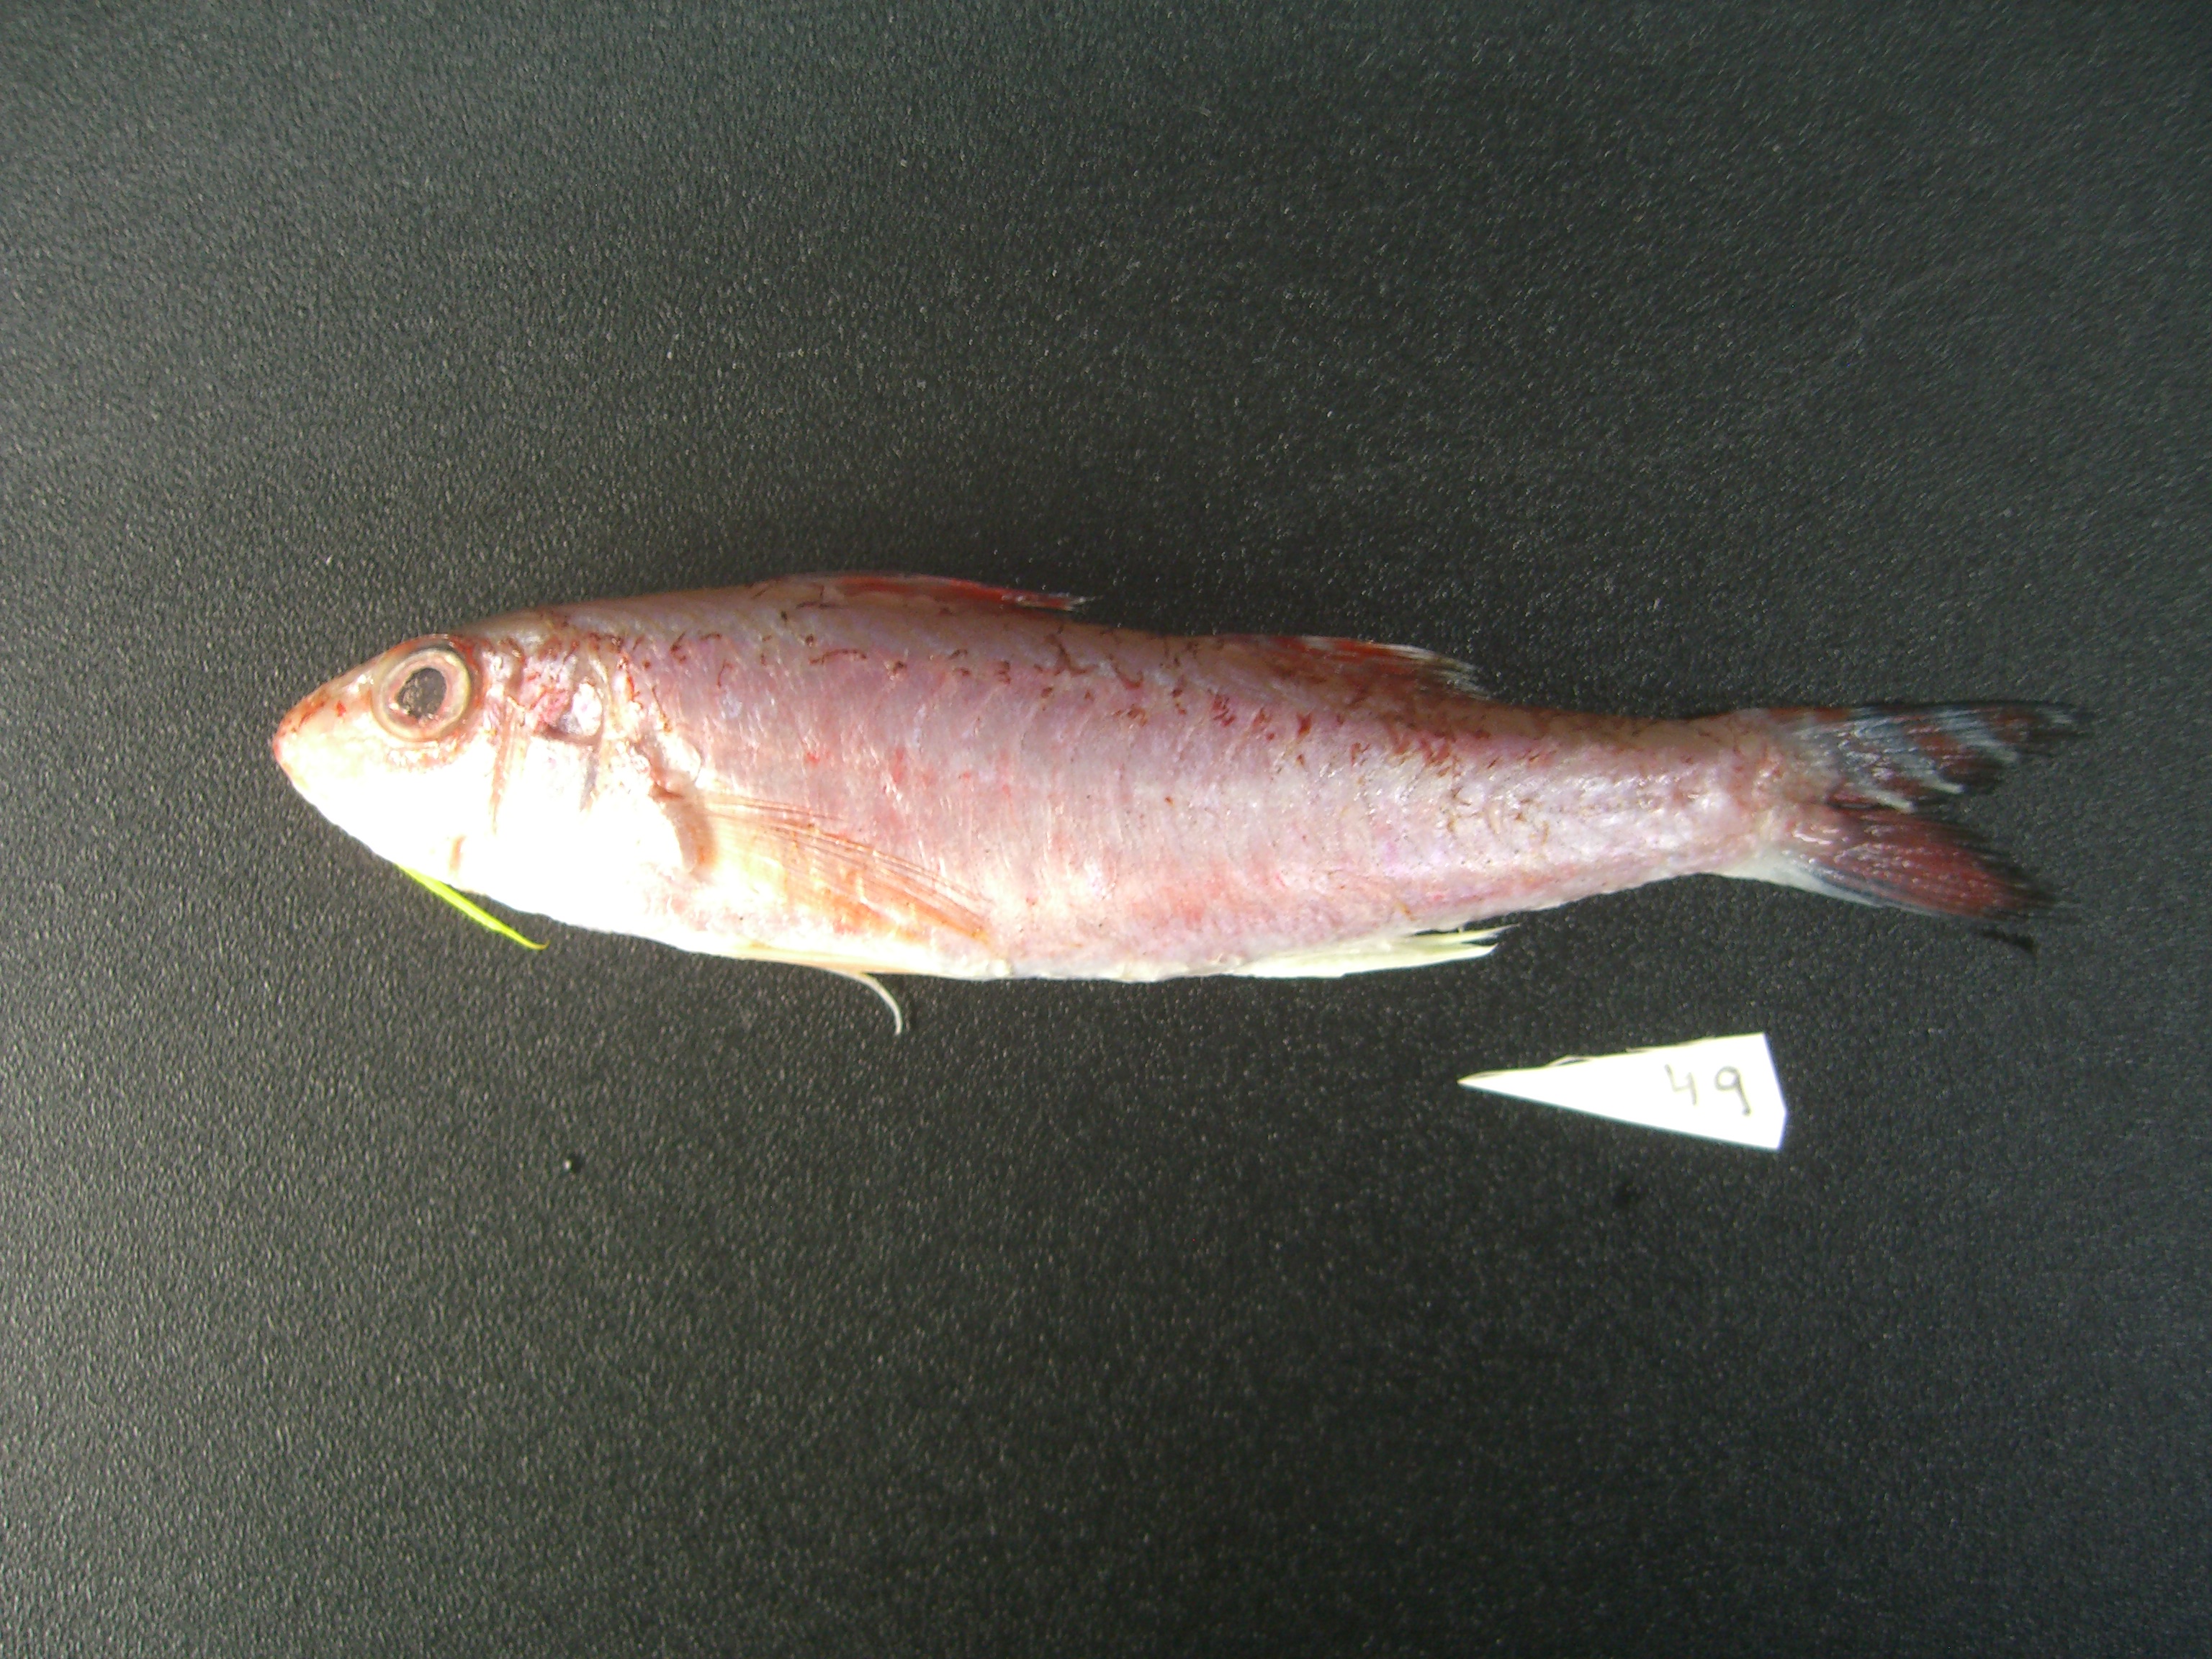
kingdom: Animalia
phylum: Chordata
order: Perciformes
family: Mullidae
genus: Upeneus
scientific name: Upeneus japonicus
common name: Bensasi goatfish
